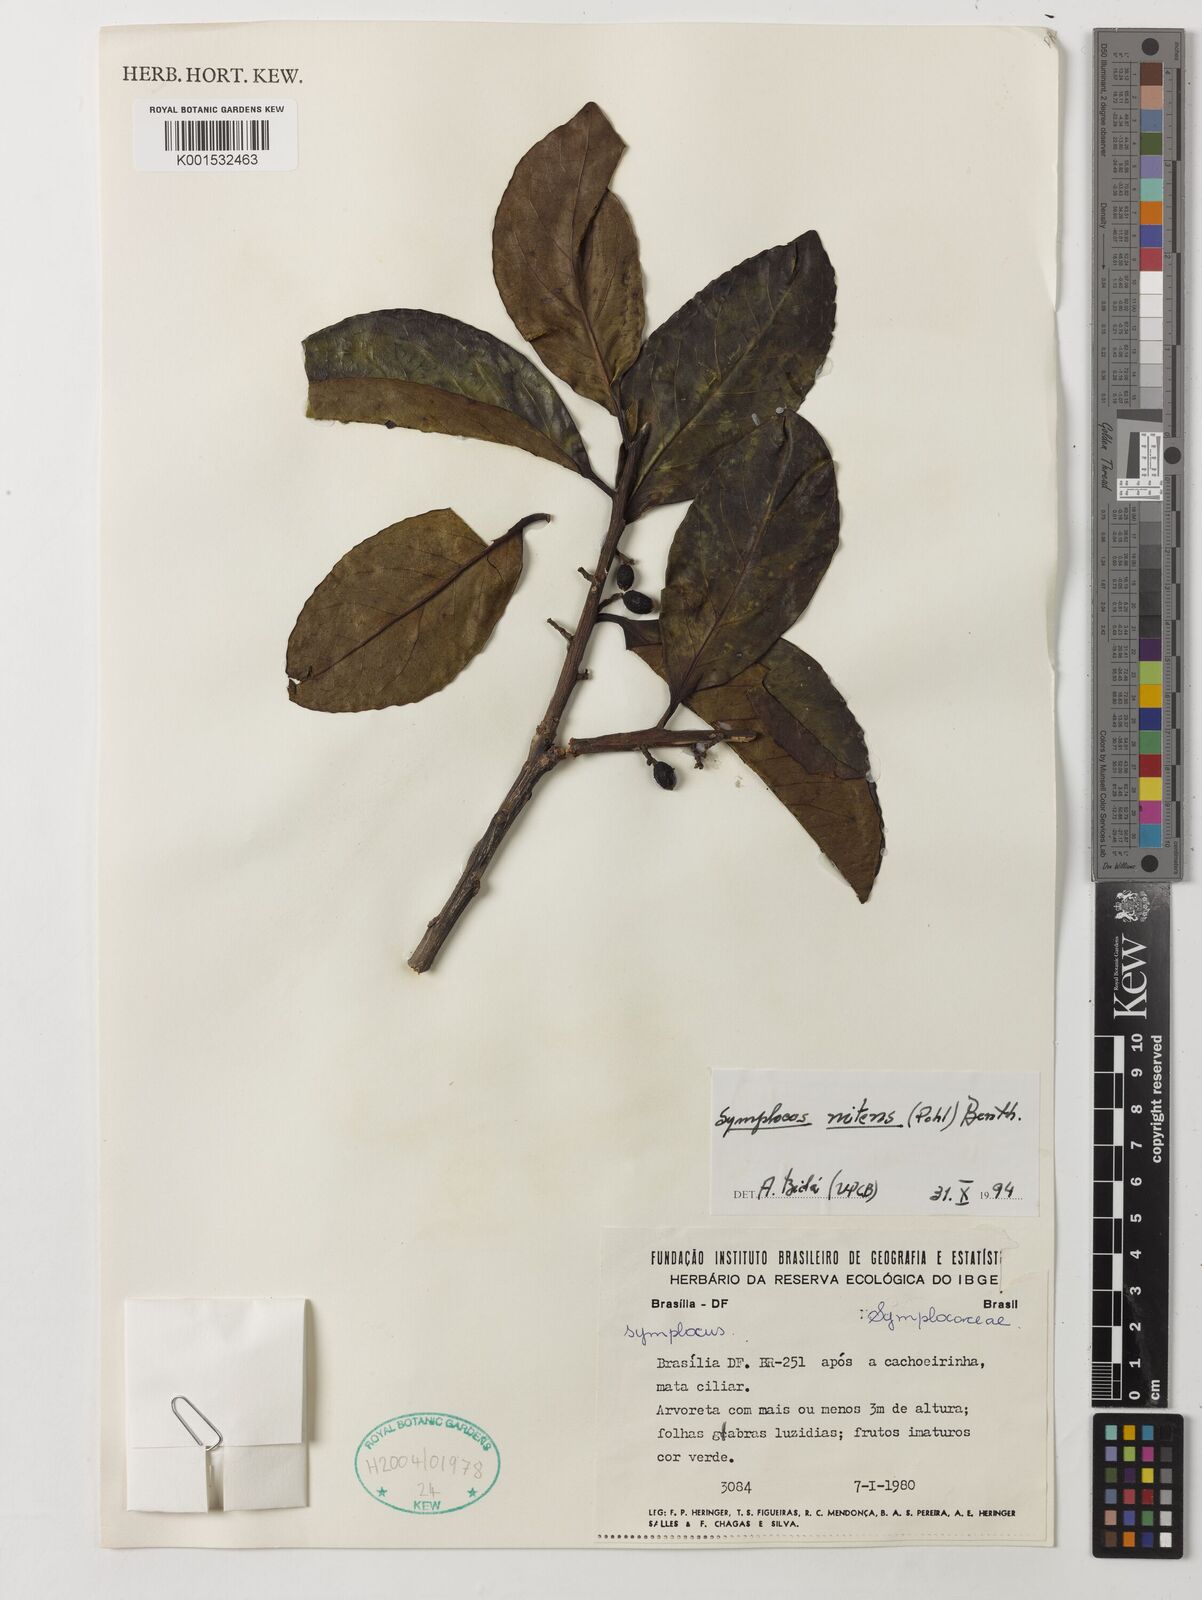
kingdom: Plantae
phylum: Tracheophyta
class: Magnoliopsida
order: Ericales
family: Symplocaceae
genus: Symplocos
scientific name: Symplocos nitens
